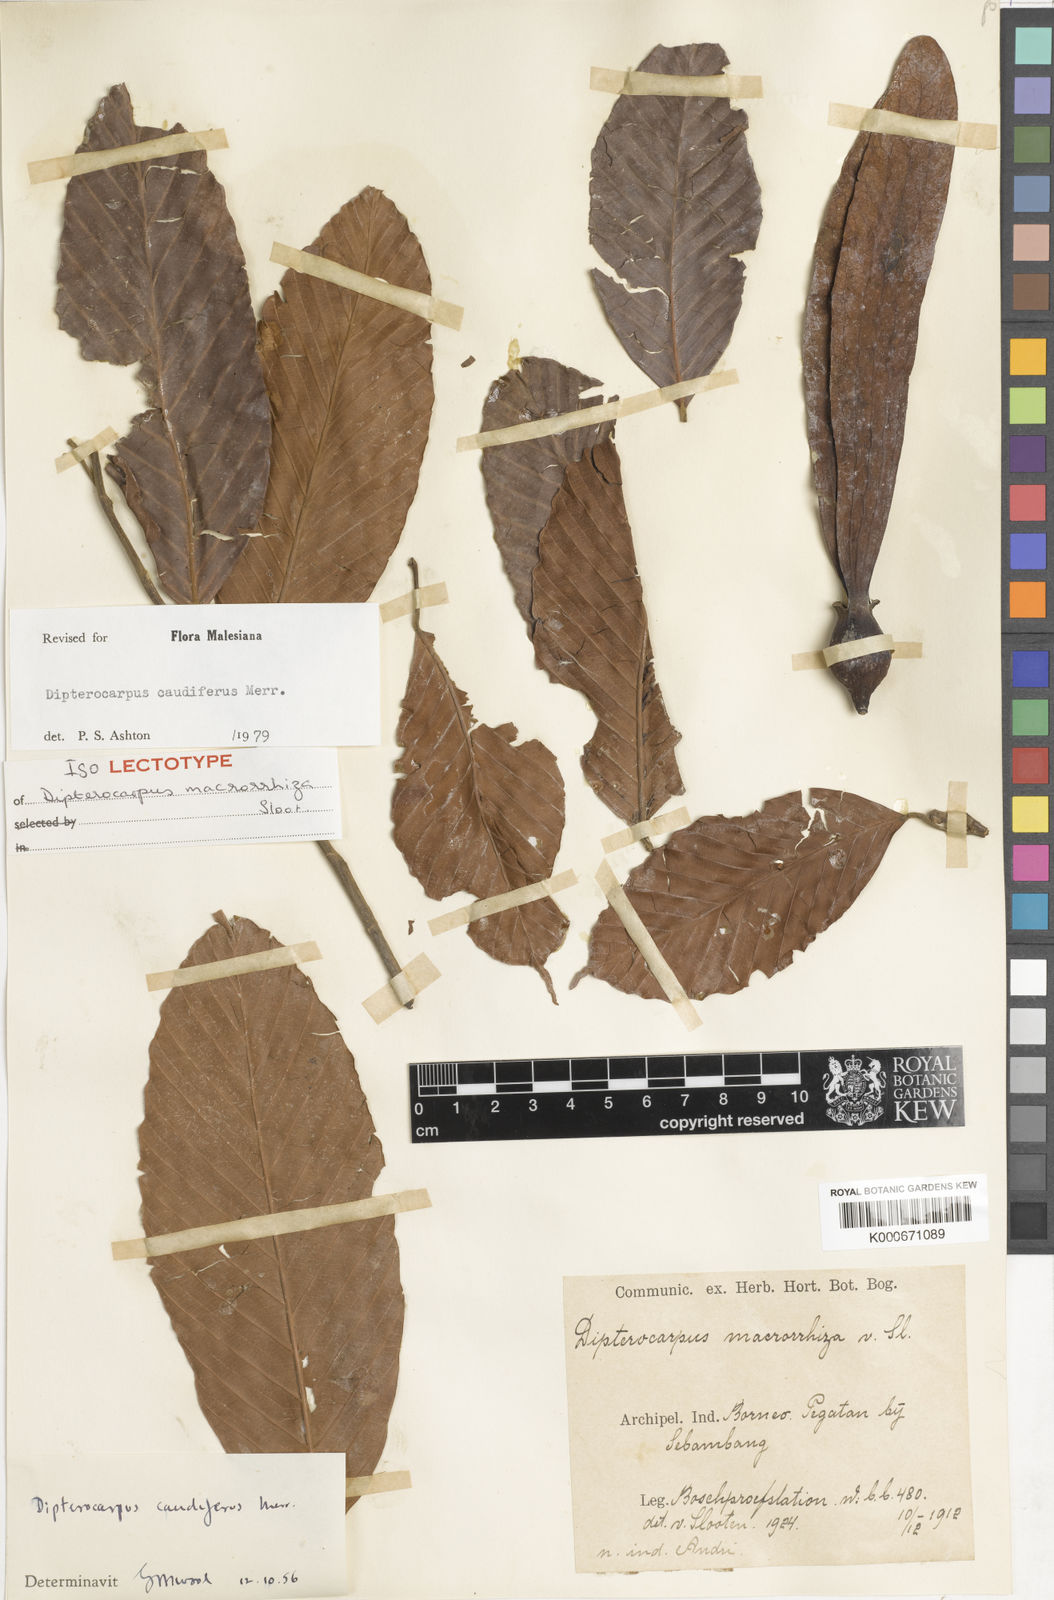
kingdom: Plantae
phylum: Tracheophyta
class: Magnoliopsida
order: Malvales
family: Dipterocarpaceae
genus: Dipterocarpus
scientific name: Dipterocarpus
